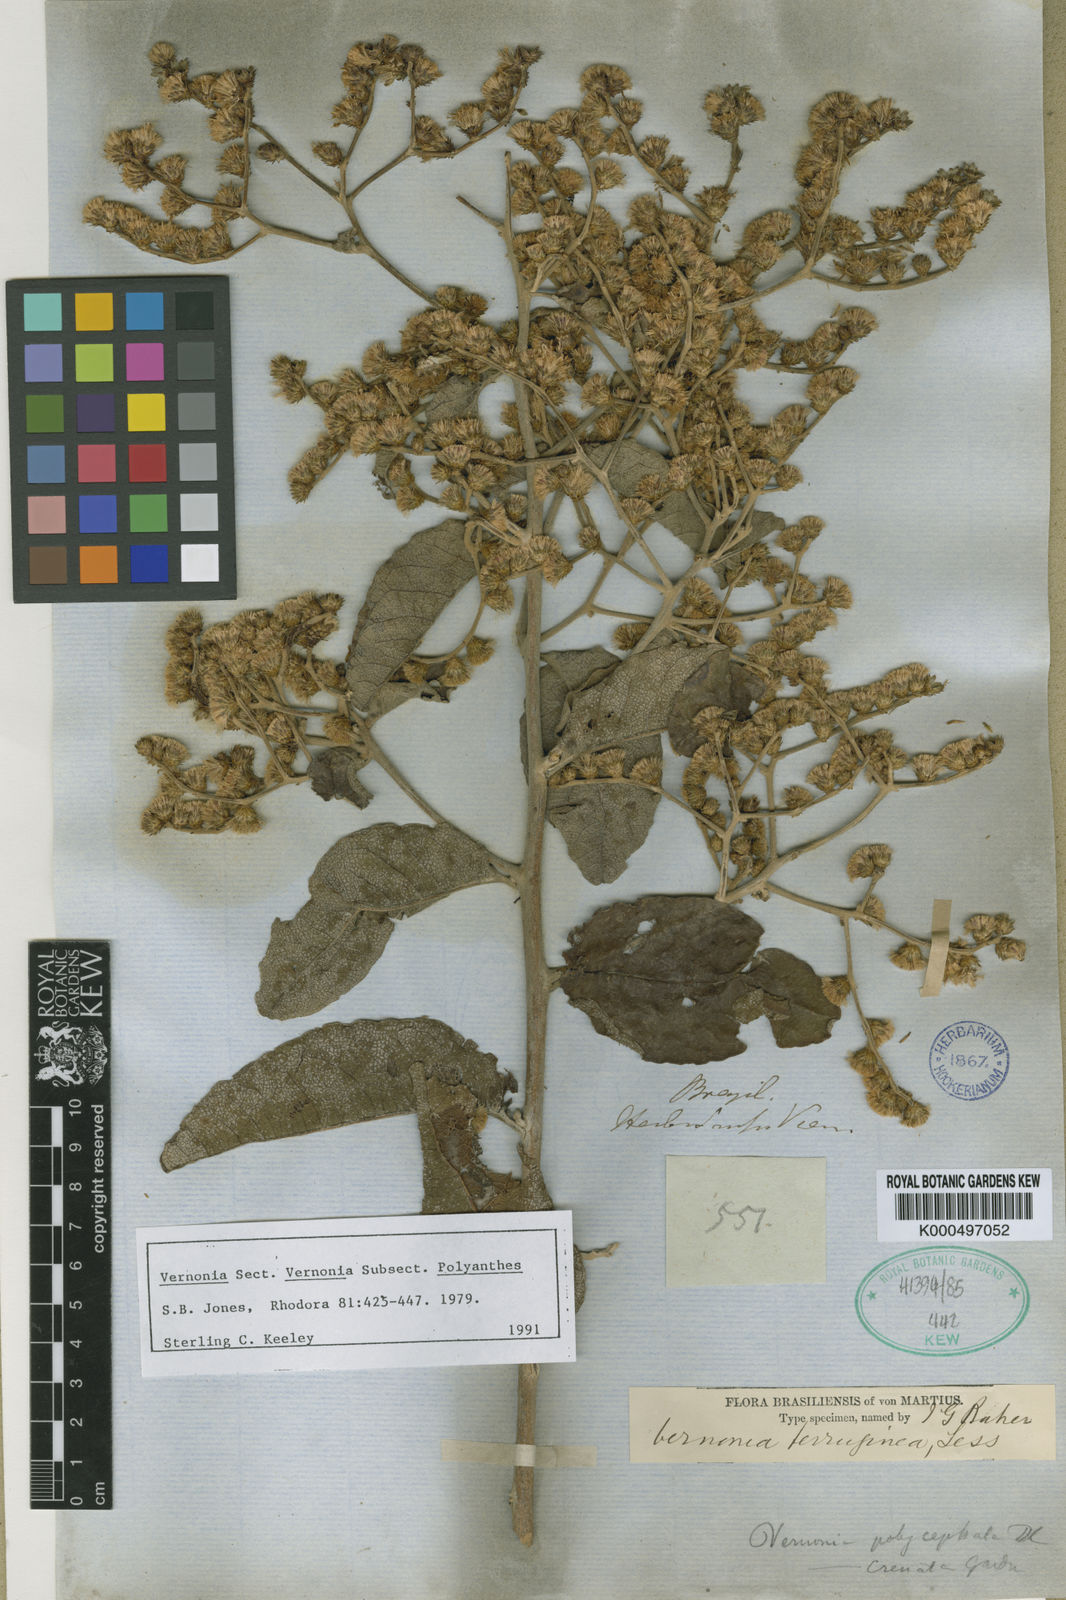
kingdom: Plantae
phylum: Tracheophyta
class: Magnoliopsida
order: Asterales
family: Asteraceae
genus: Vernonanthura
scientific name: Vernonanthura ferruginea
